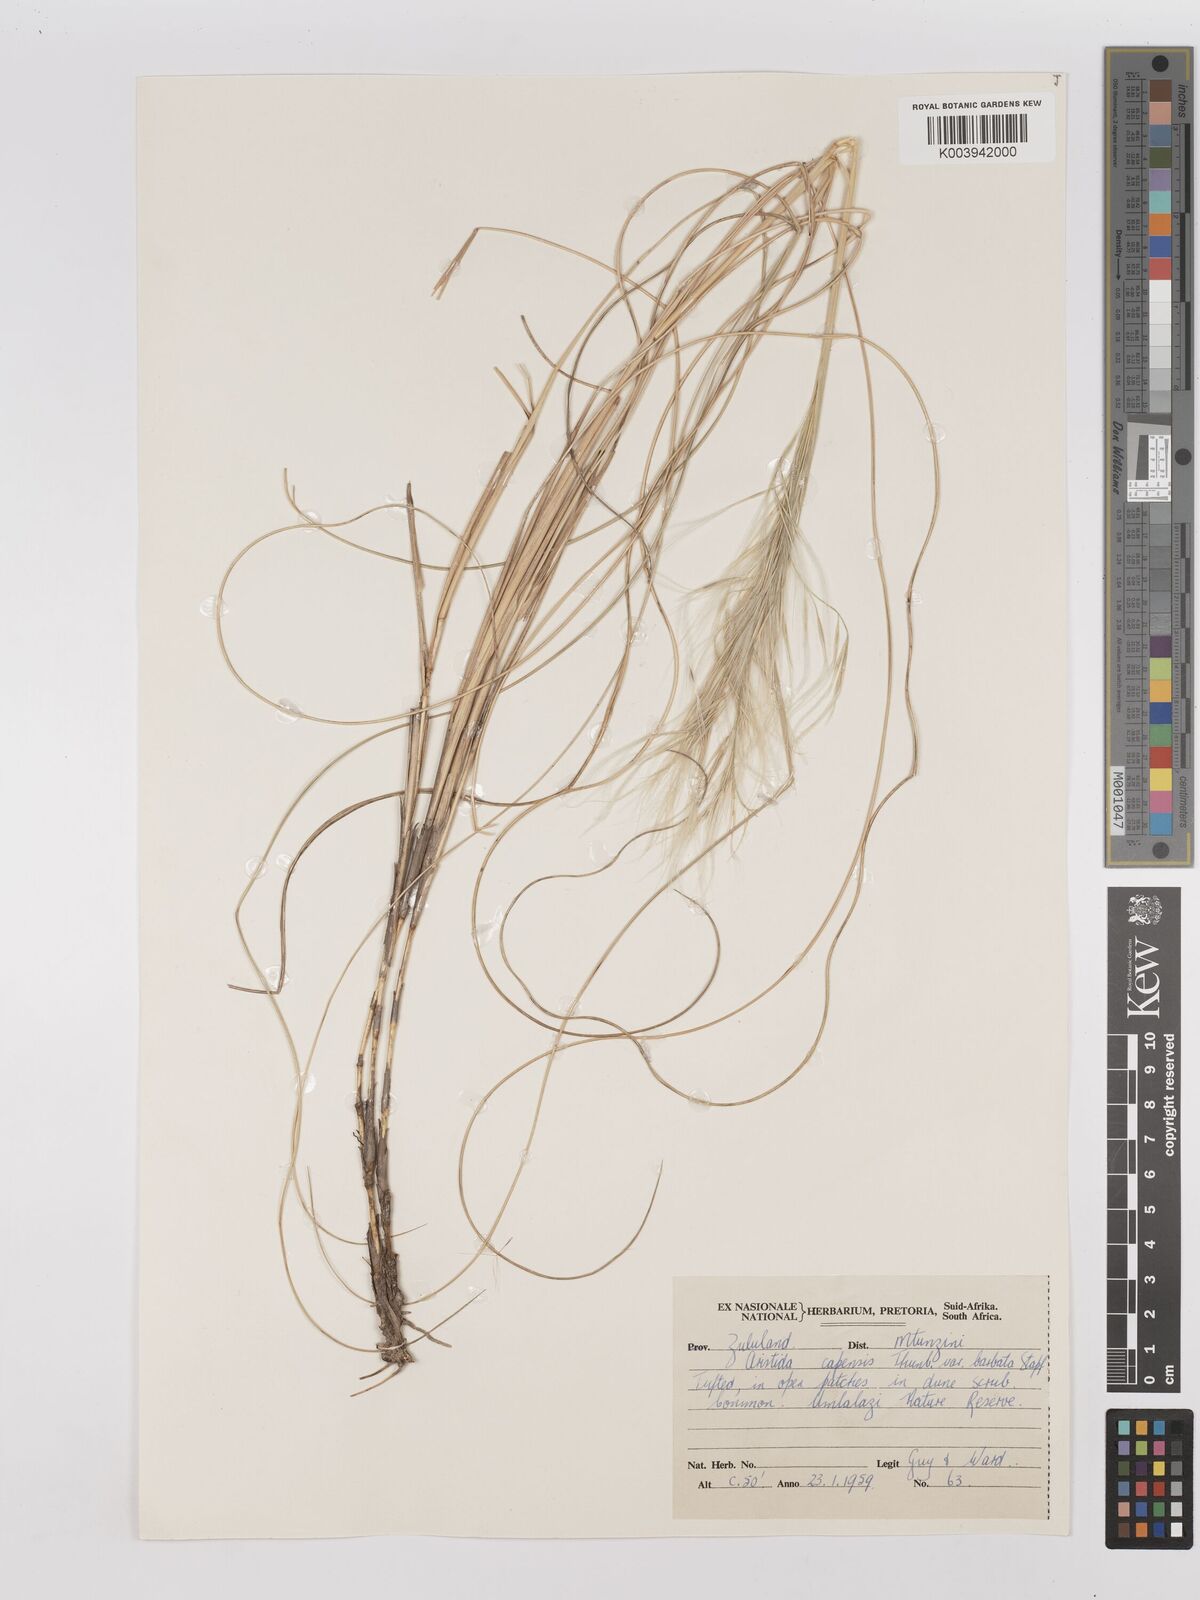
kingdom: Plantae
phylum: Tracheophyta
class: Liliopsida
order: Poales
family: Poaceae
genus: Stipagrostis
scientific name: Stipagrostis zeyheri
